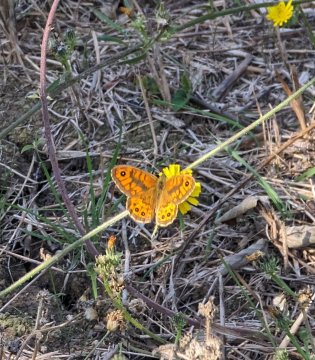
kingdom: Animalia
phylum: Arthropoda
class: Insecta
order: Lepidoptera
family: Nymphalidae
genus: Pararge
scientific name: Pararge Lasiommata megera
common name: Wall
